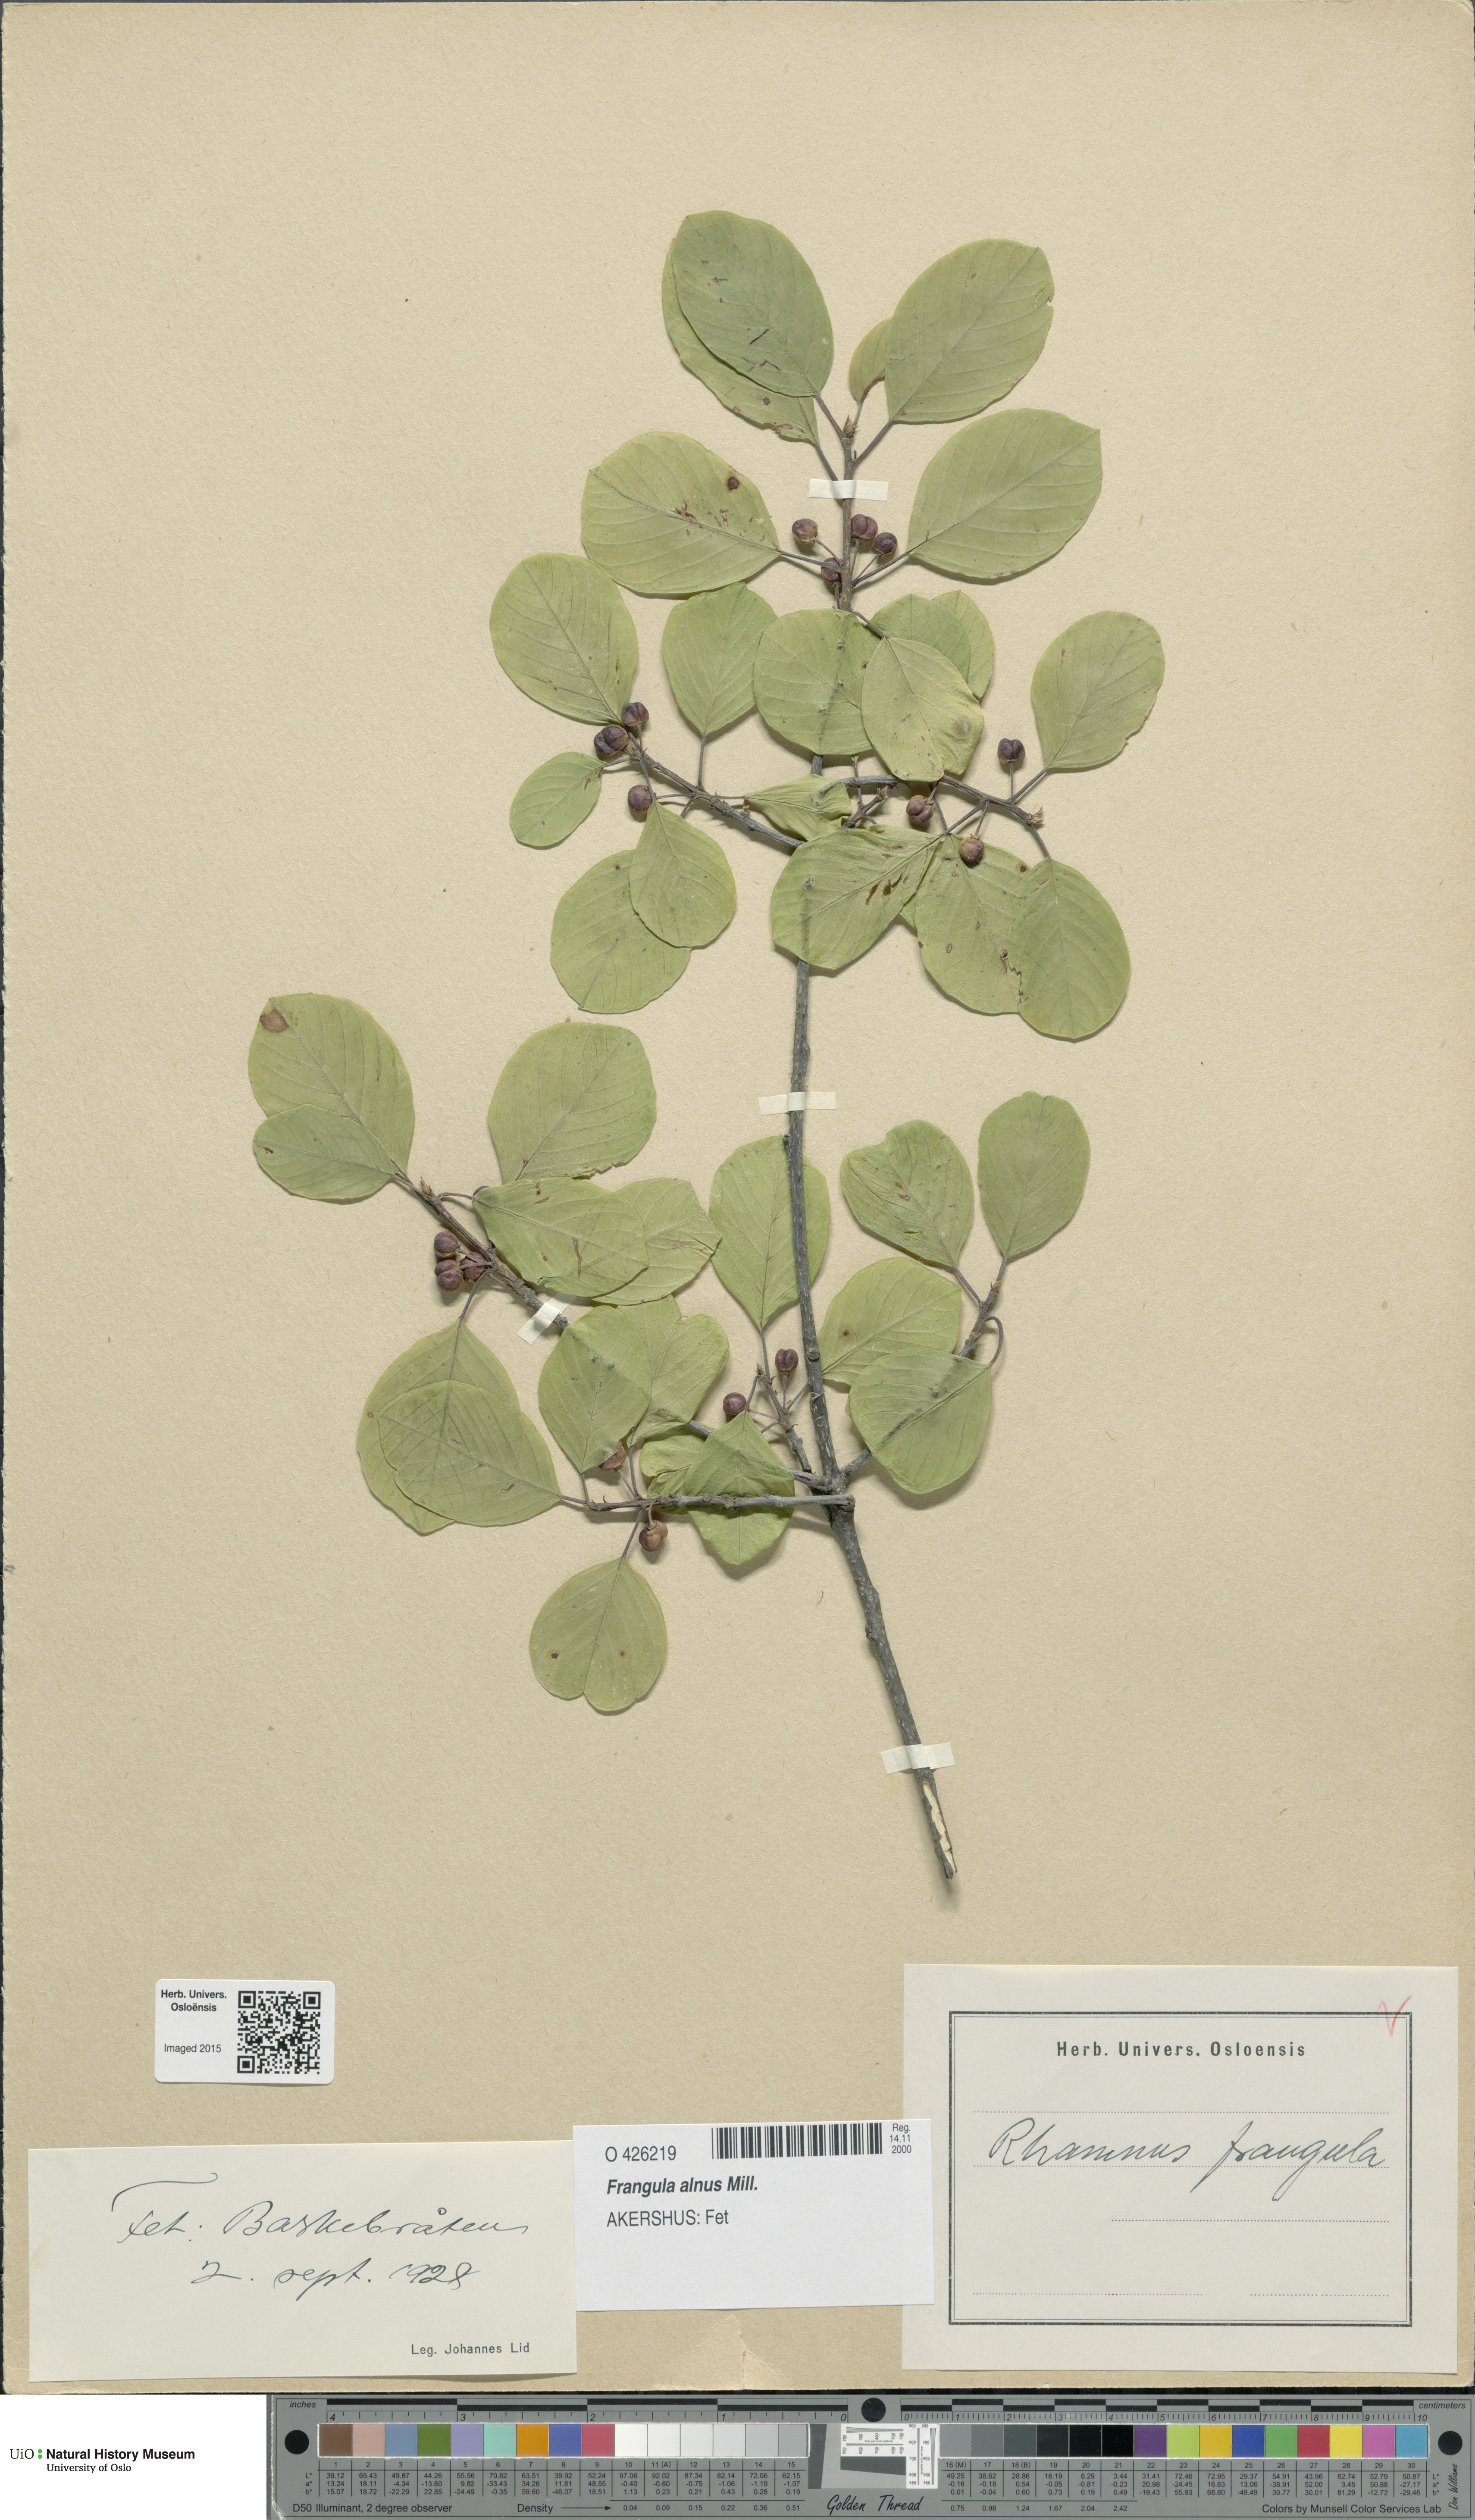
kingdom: Plantae
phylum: Tracheophyta
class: Magnoliopsida
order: Rosales
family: Rhamnaceae
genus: Frangula
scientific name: Frangula alnus
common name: Alder buckthorn
